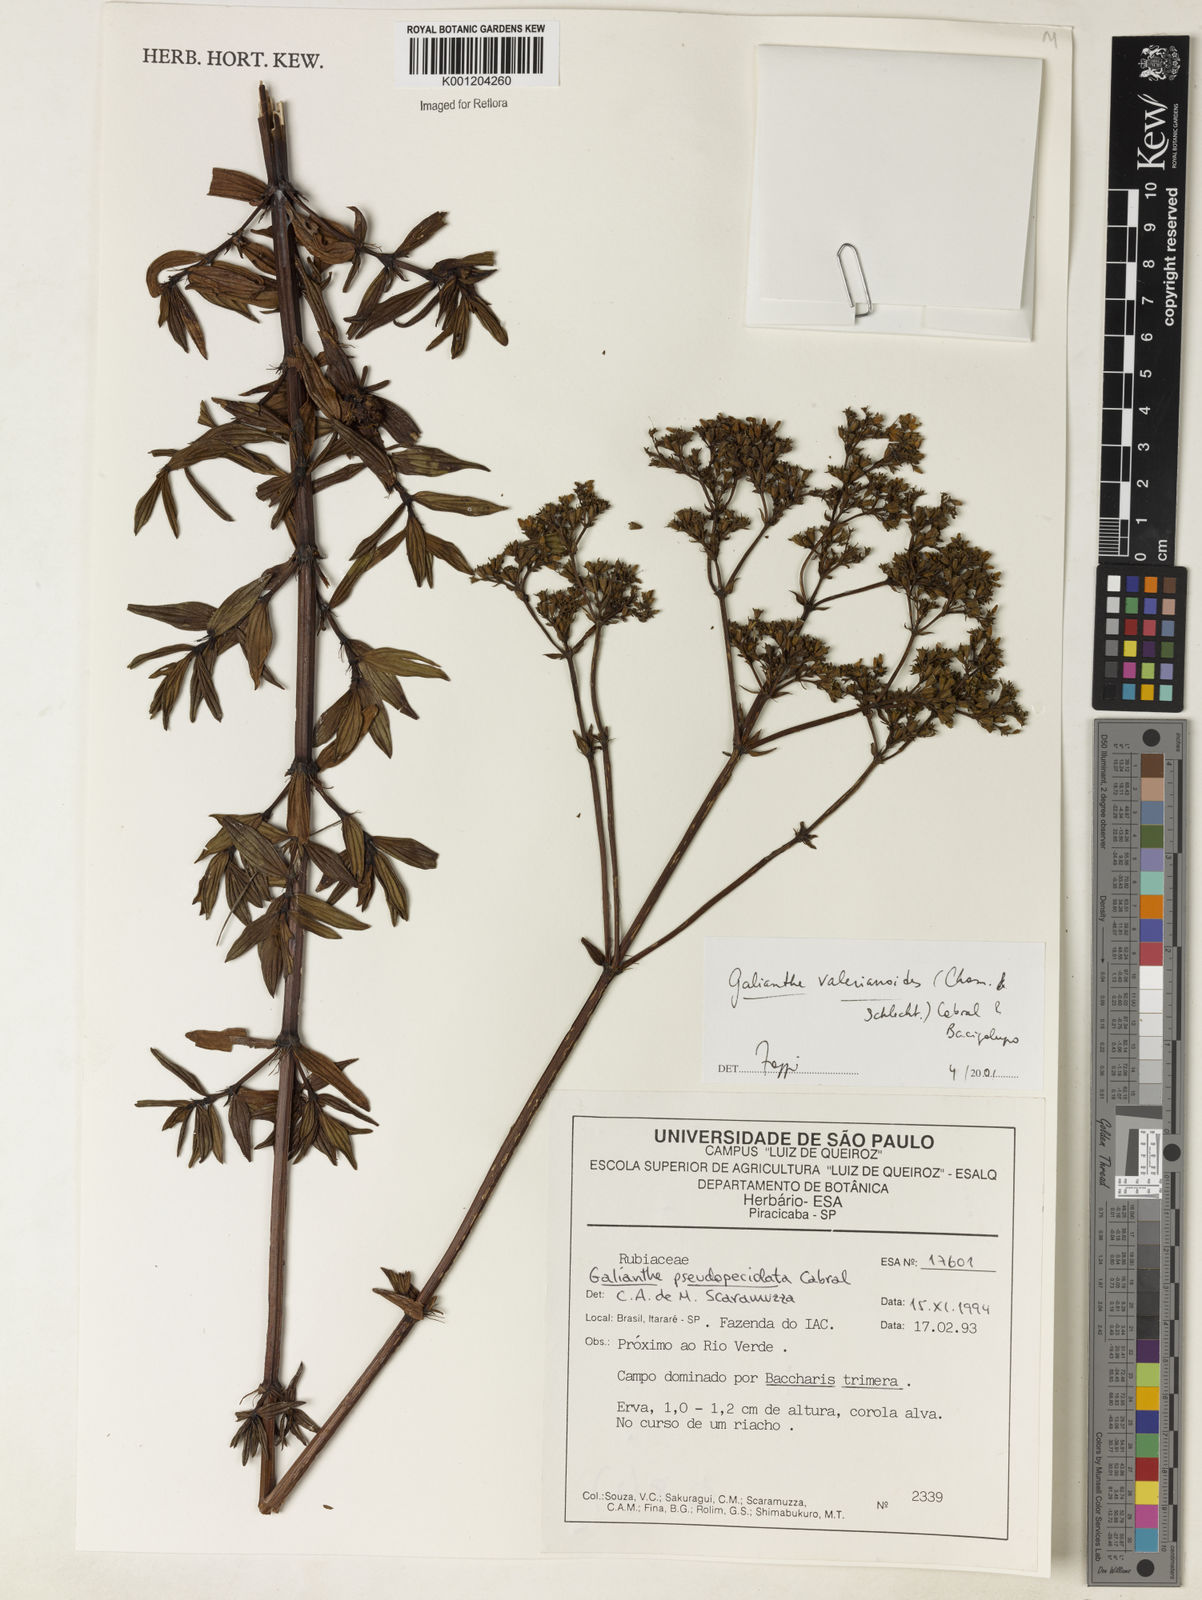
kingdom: Plantae
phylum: Tracheophyta
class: Magnoliopsida
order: Gentianales
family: Rubiaceae
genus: Galianthe
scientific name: Galianthe valerianoides
